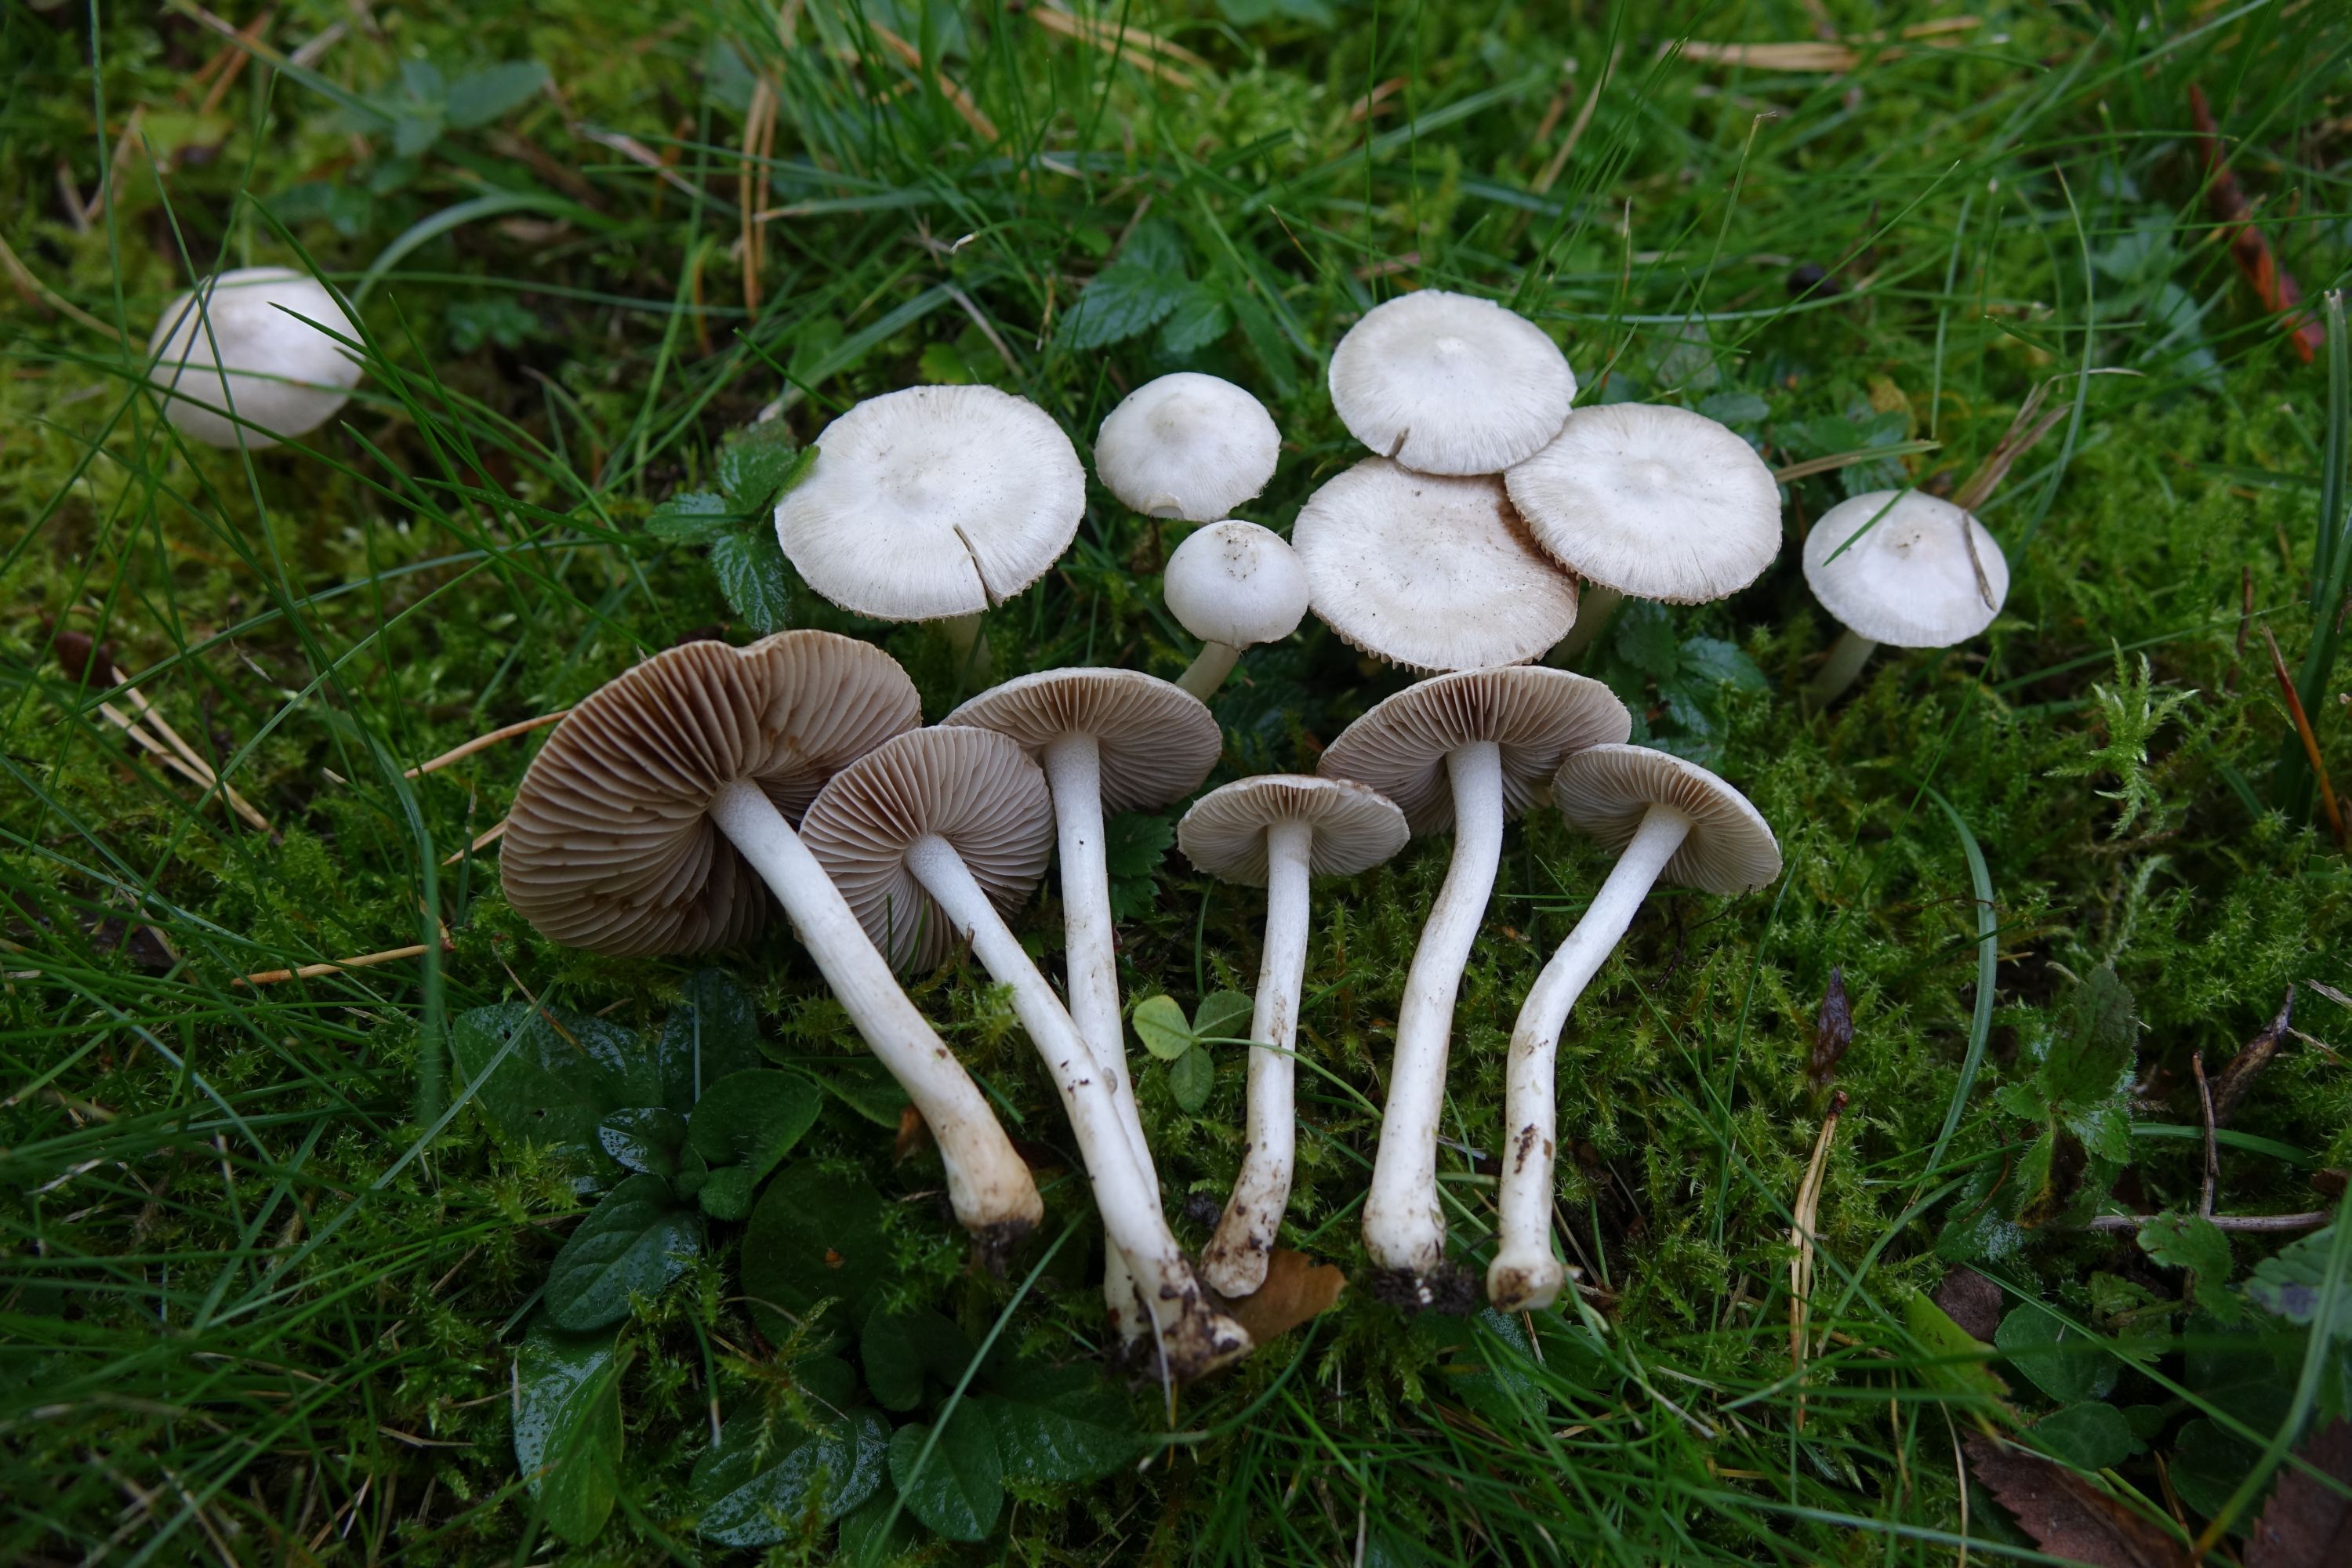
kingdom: Fungi
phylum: Basidiomycota
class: Agaricomycetes
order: Agaricales
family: Inocybaceae
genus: Inocybe
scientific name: Inocybe geophylla
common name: White fibrecap
